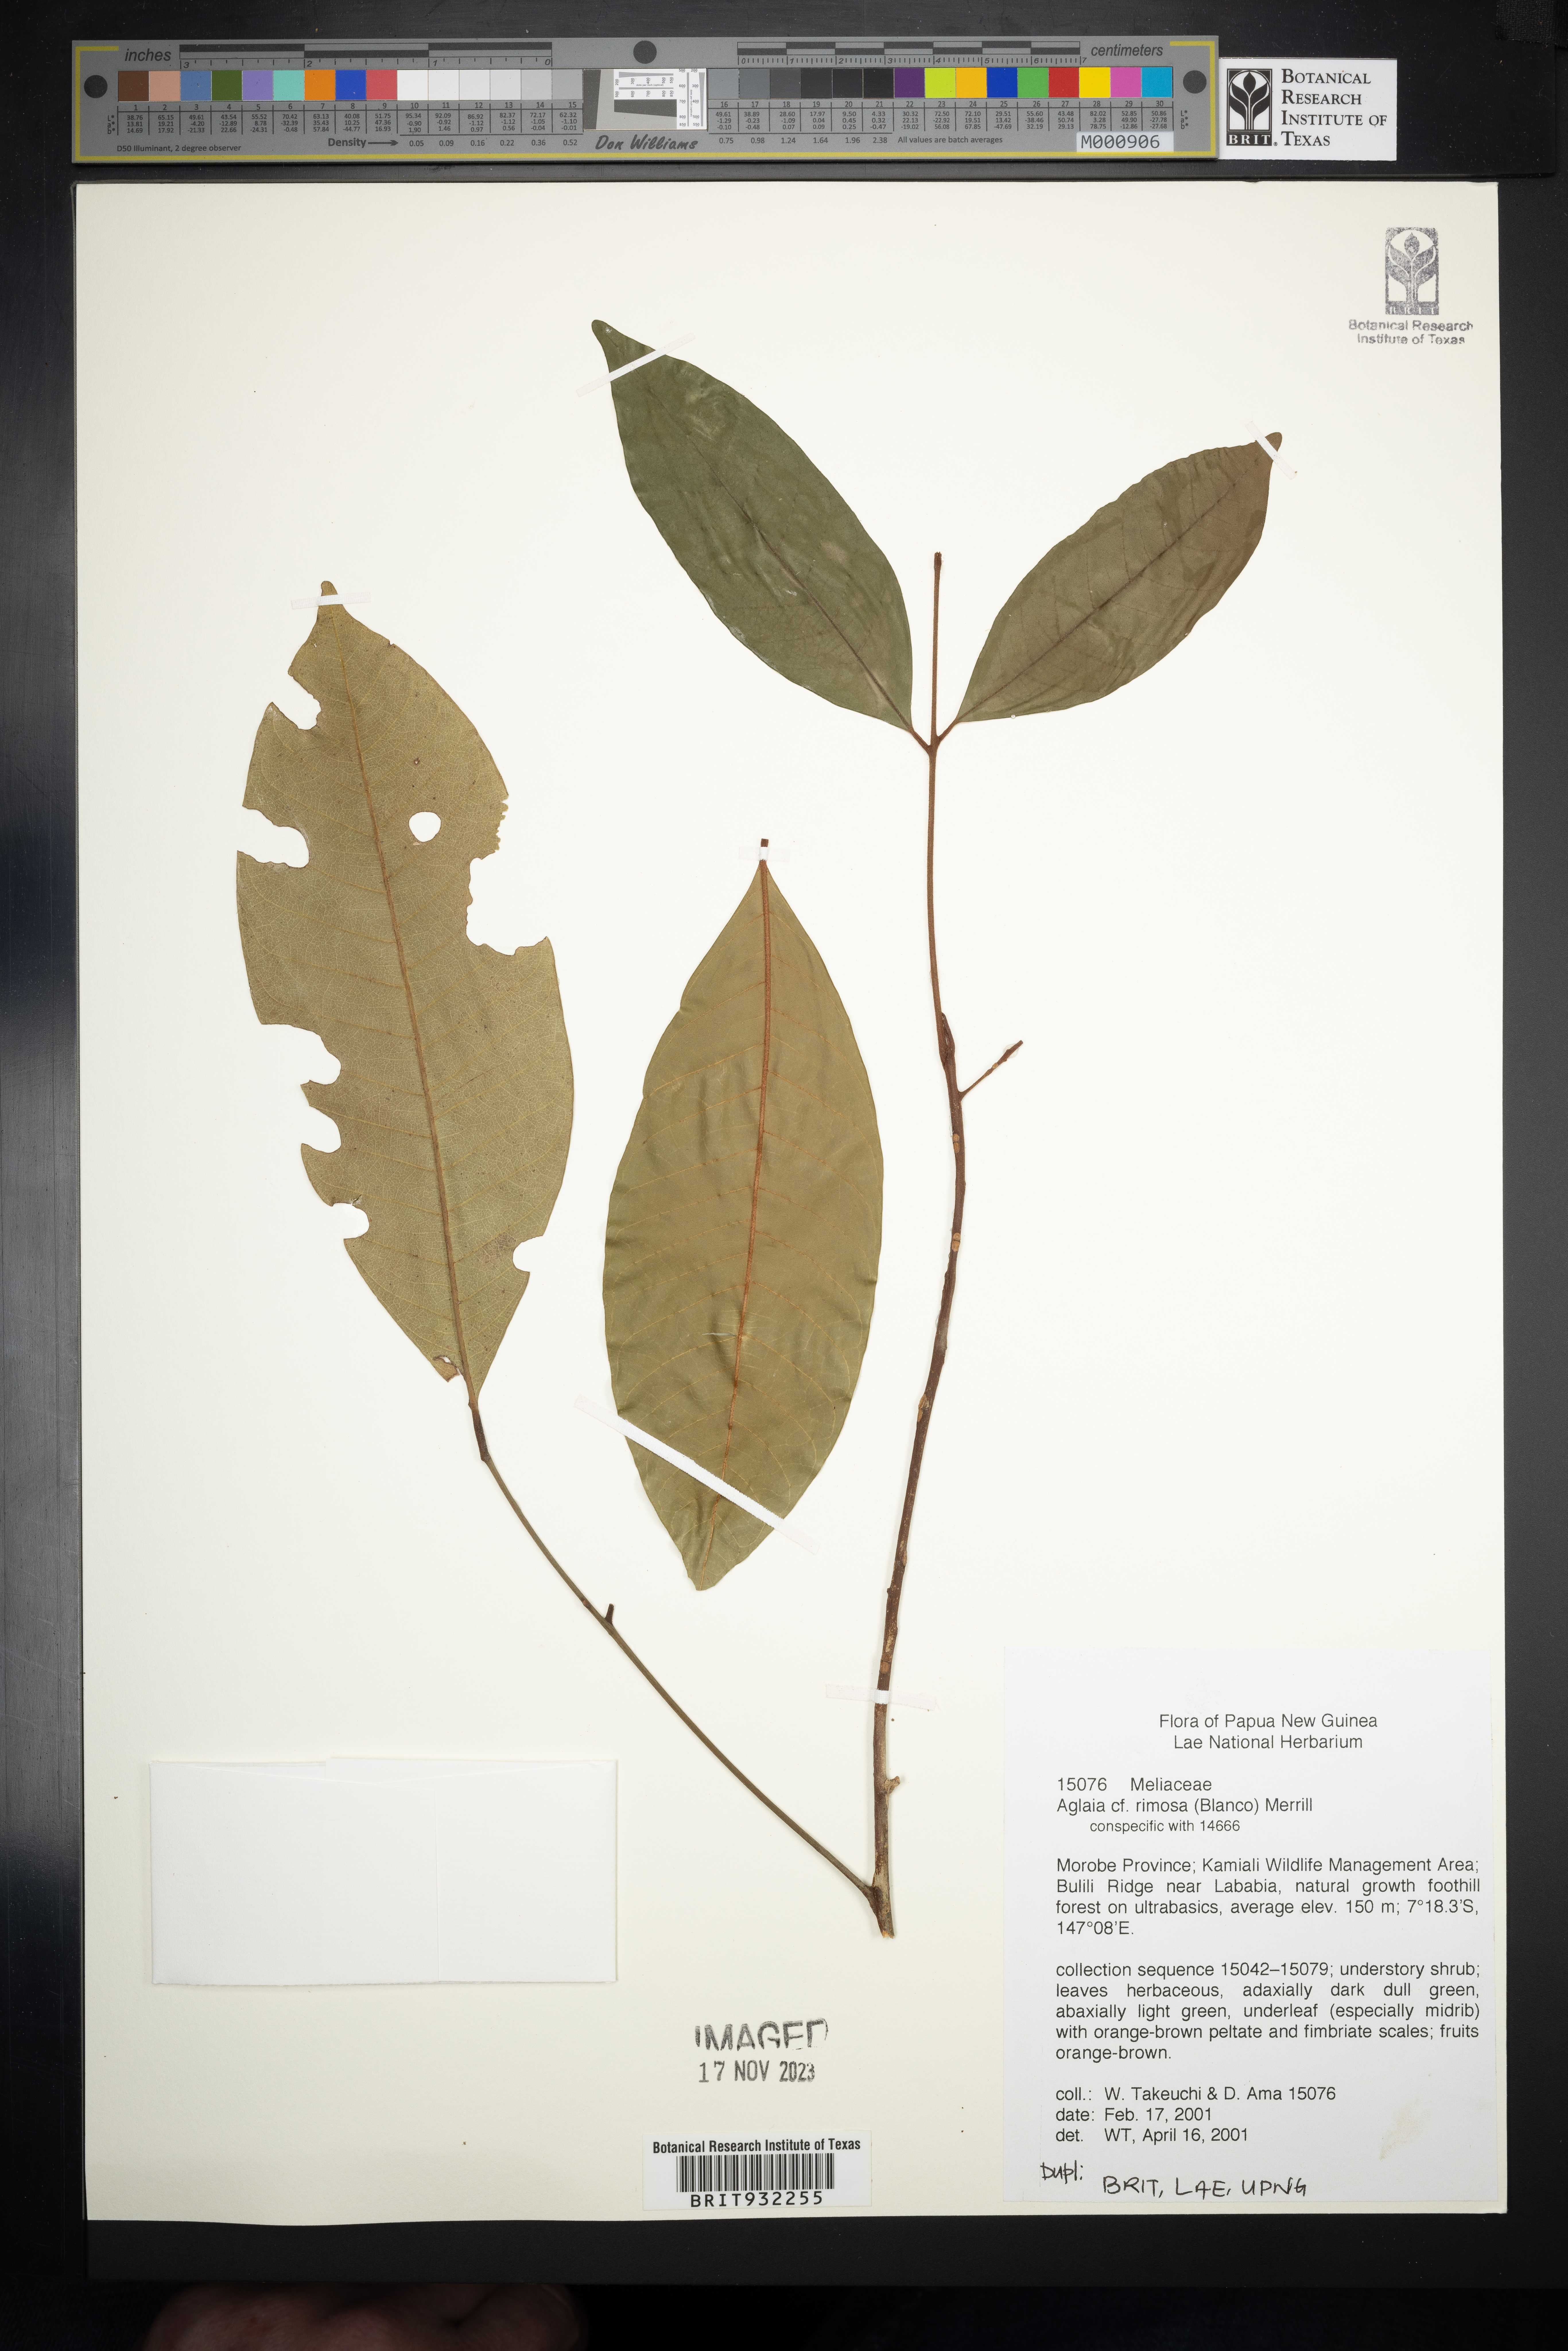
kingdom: Plantae
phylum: Tracheophyta
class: Magnoliopsida
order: Sapindales
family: Meliaceae
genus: Aglaia
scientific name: Aglaia
